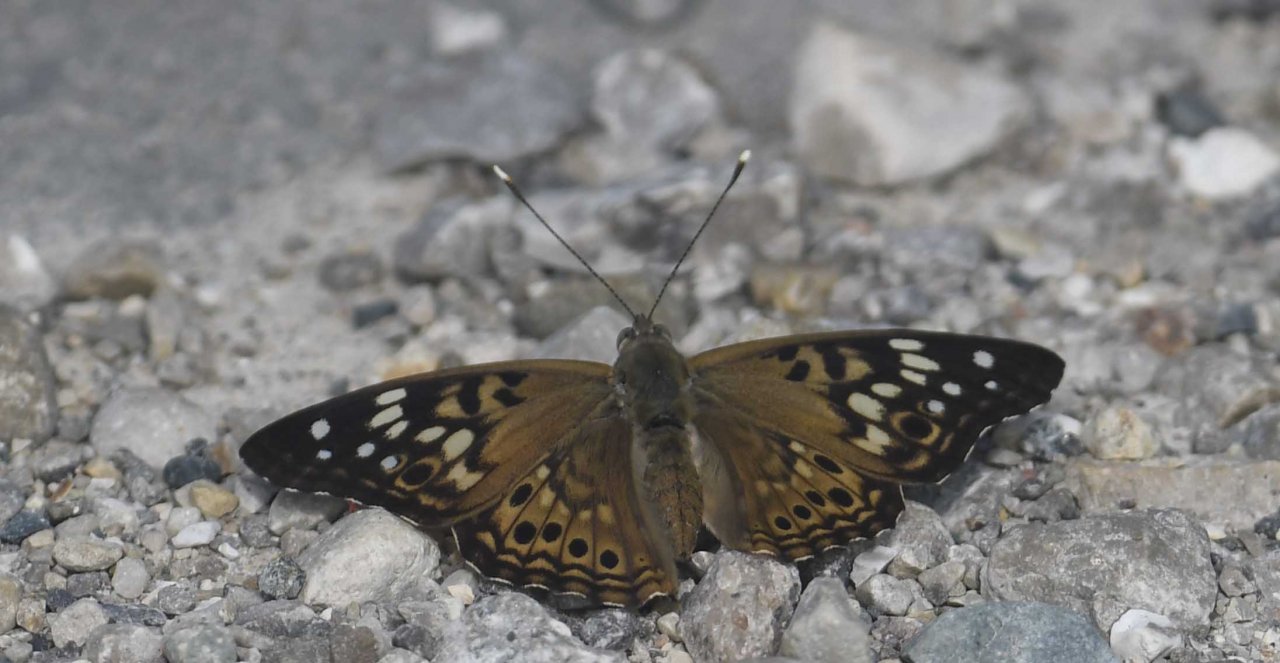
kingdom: Animalia
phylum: Arthropoda
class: Insecta
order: Lepidoptera
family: Nymphalidae
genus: Asterocampa
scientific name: Asterocampa celtis
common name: Hackberry Emperor
